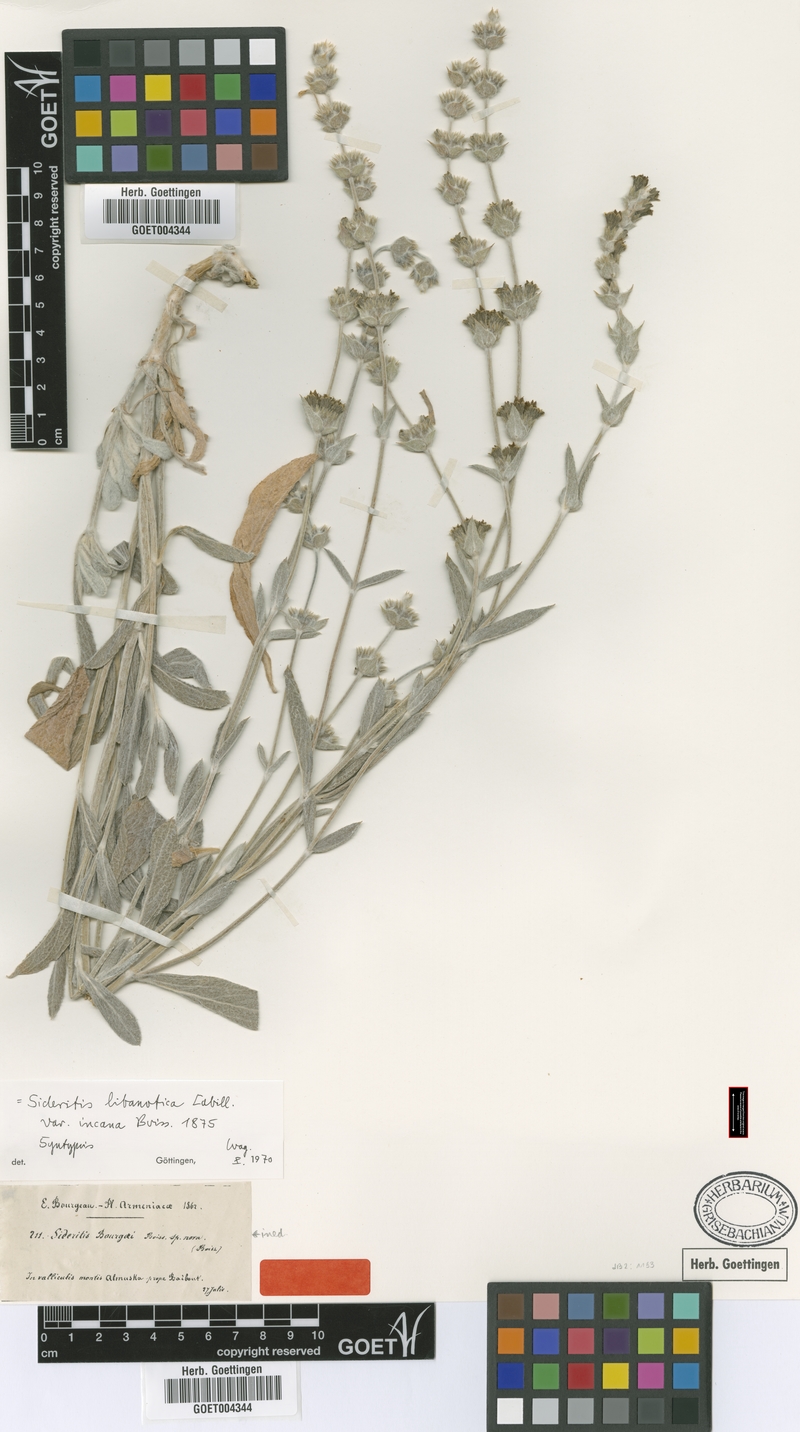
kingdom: Plantae
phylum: Tracheophyta
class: Magnoliopsida
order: Lamiales
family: Lamiaceae
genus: Sideritis
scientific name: Sideritis libanotica
